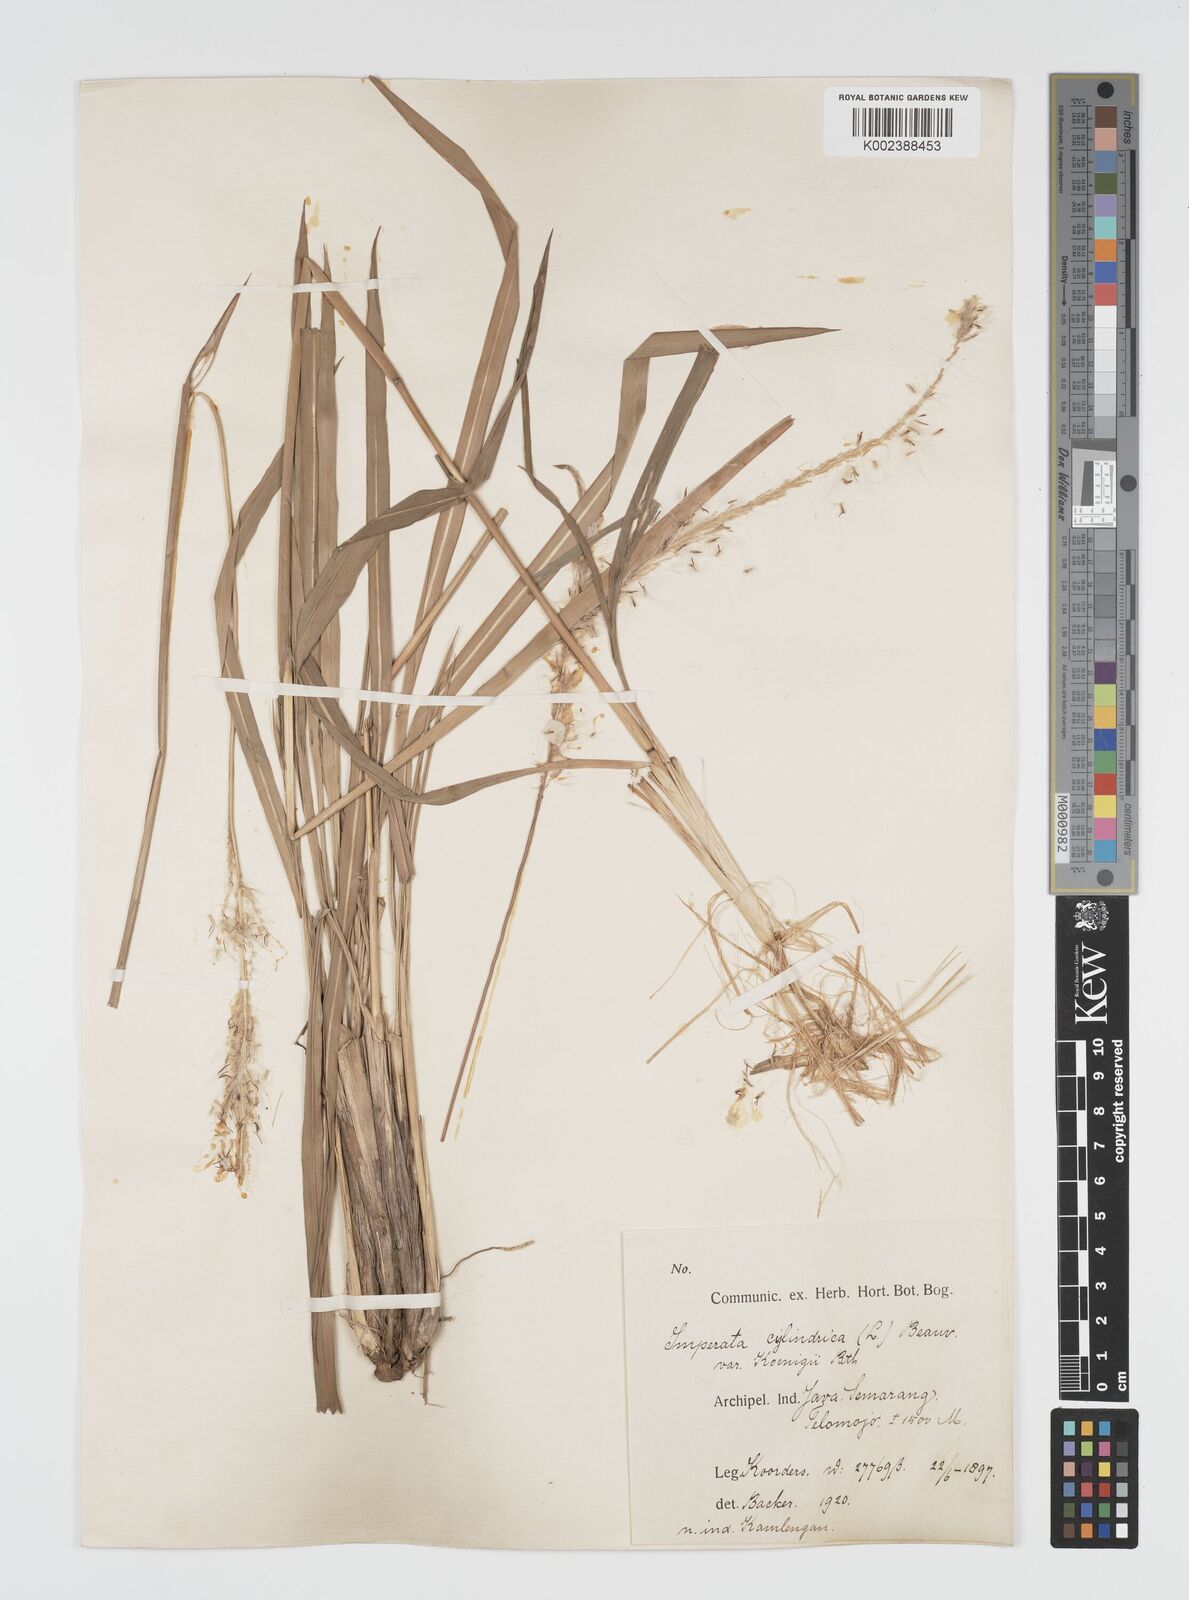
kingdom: Plantae
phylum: Tracheophyta
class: Liliopsida
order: Poales
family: Poaceae
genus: Imperata
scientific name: Imperata
